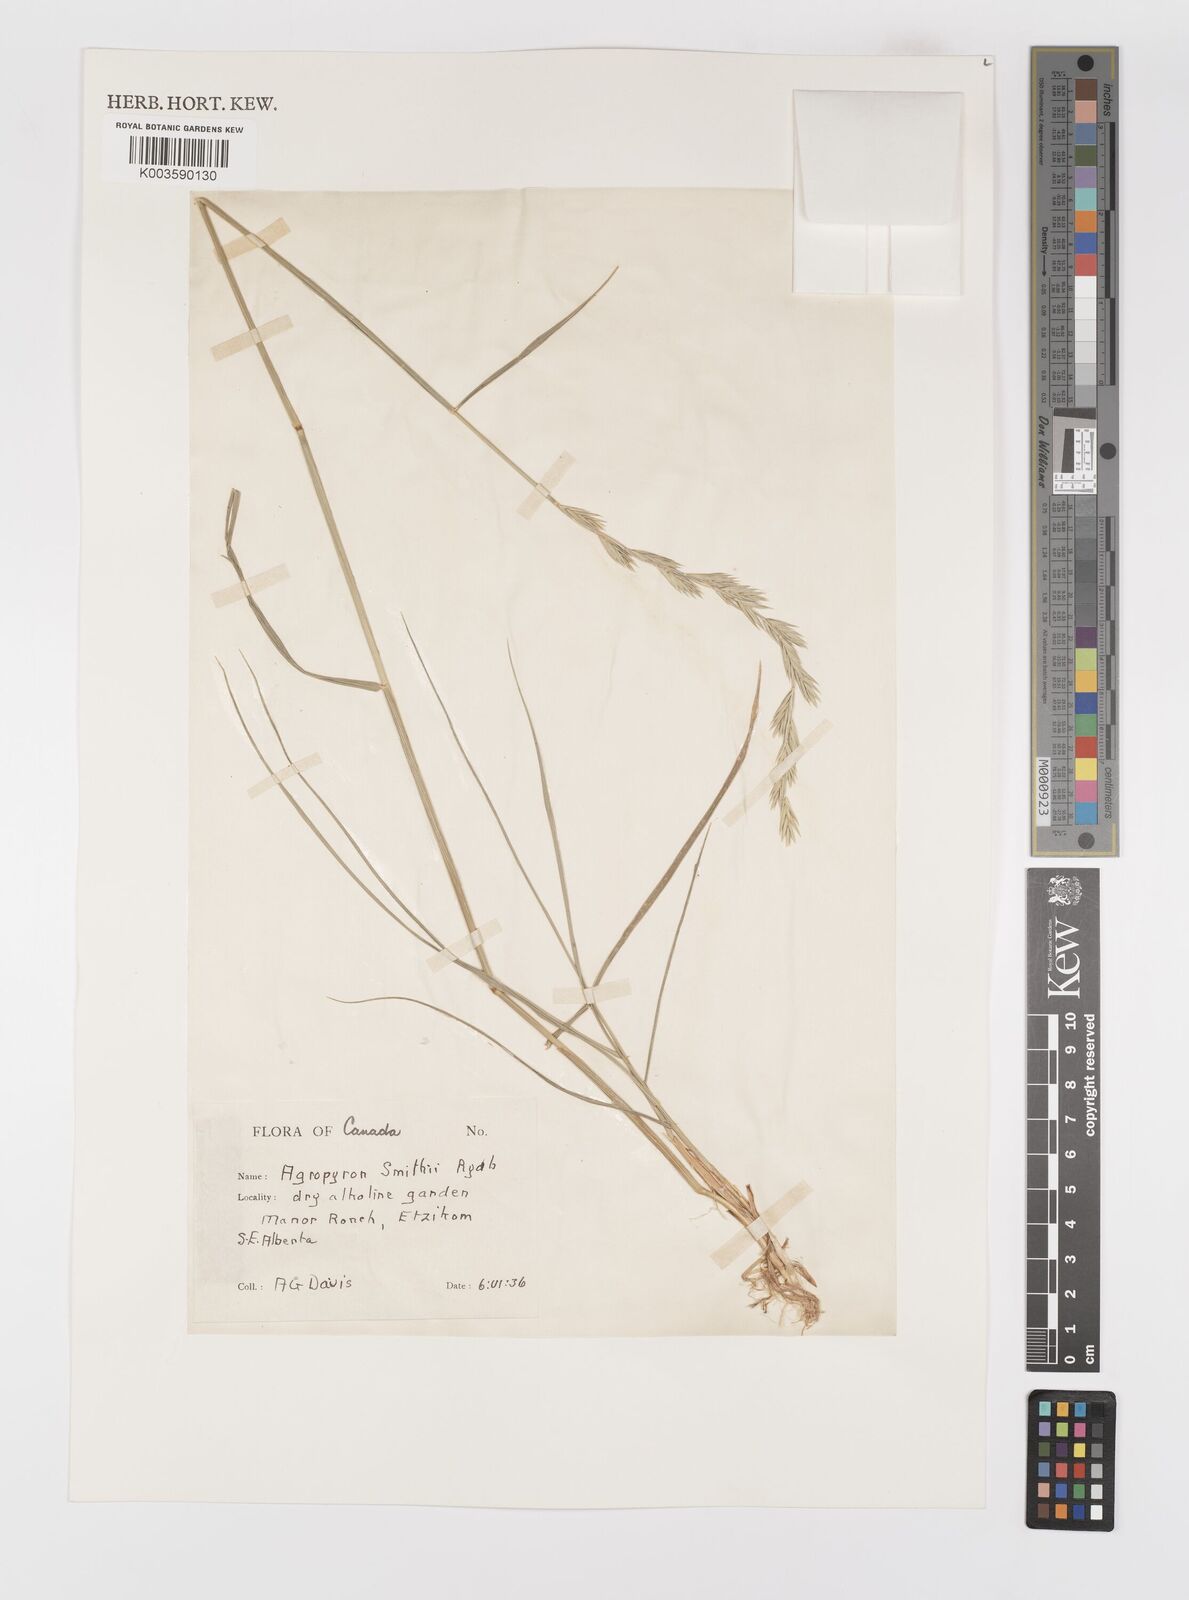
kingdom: Plantae
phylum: Tracheophyta
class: Liliopsida
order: Poales
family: Poaceae
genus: Elymus
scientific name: Elymus smithii
